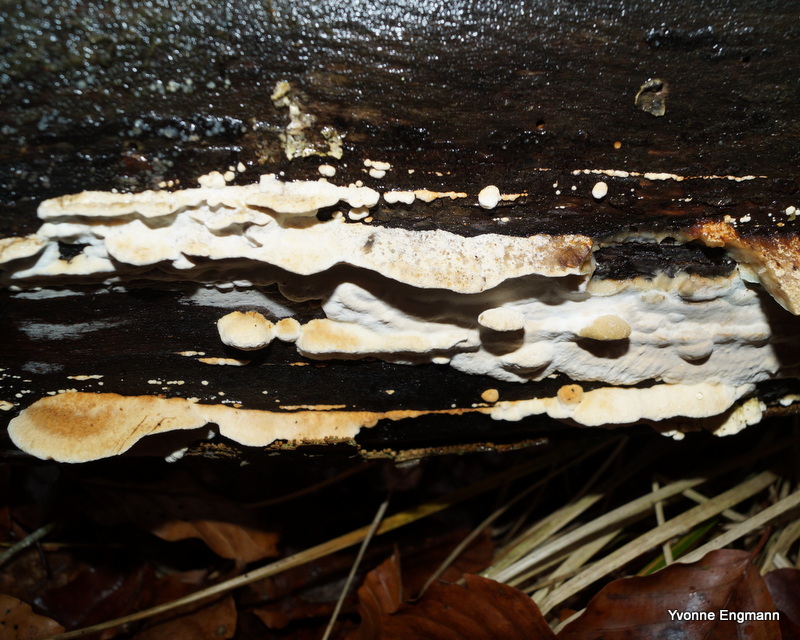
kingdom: Fungi
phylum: Basidiomycota
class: Agaricomycetes
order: Polyporales
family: Incrustoporiaceae
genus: Skeletocutis
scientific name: Skeletocutis nemoralis
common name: stor krystalporesvamp
